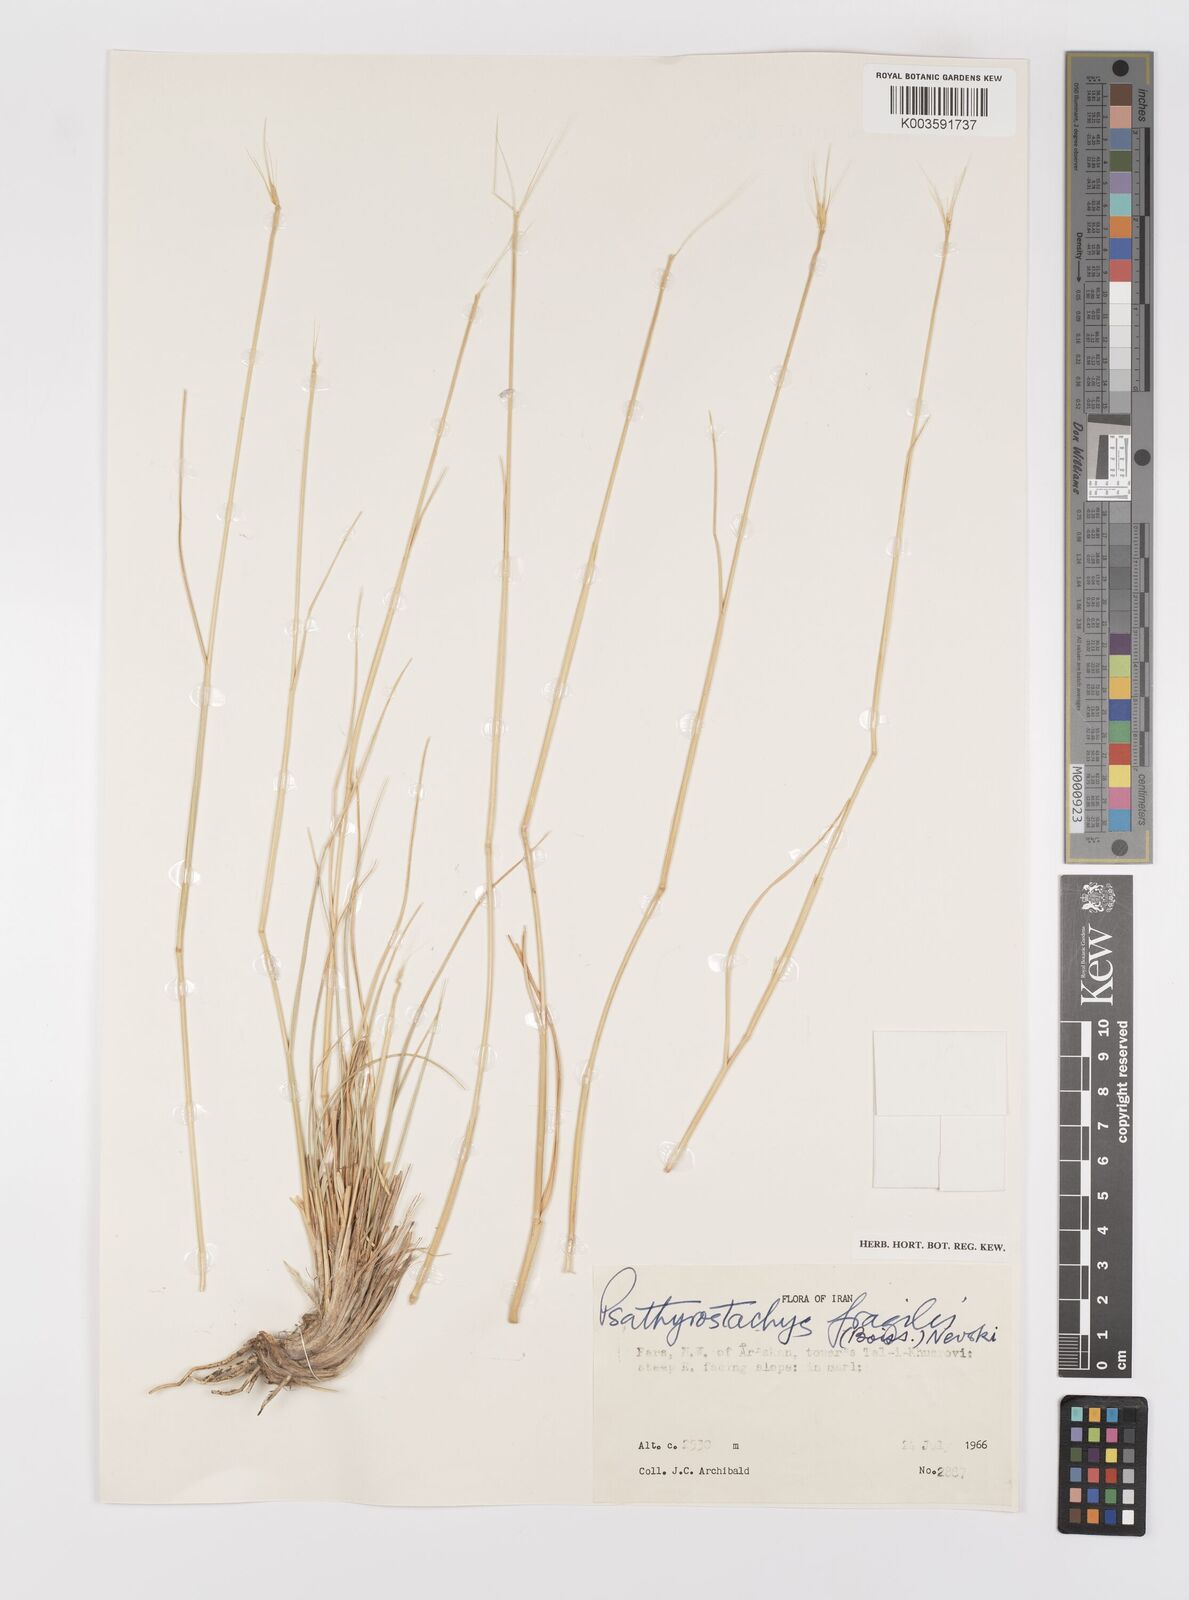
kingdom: Plantae
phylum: Tracheophyta
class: Liliopsida
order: Poales
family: Poaceae
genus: Psathyrostachys
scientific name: Psathyrostachys fragilis
